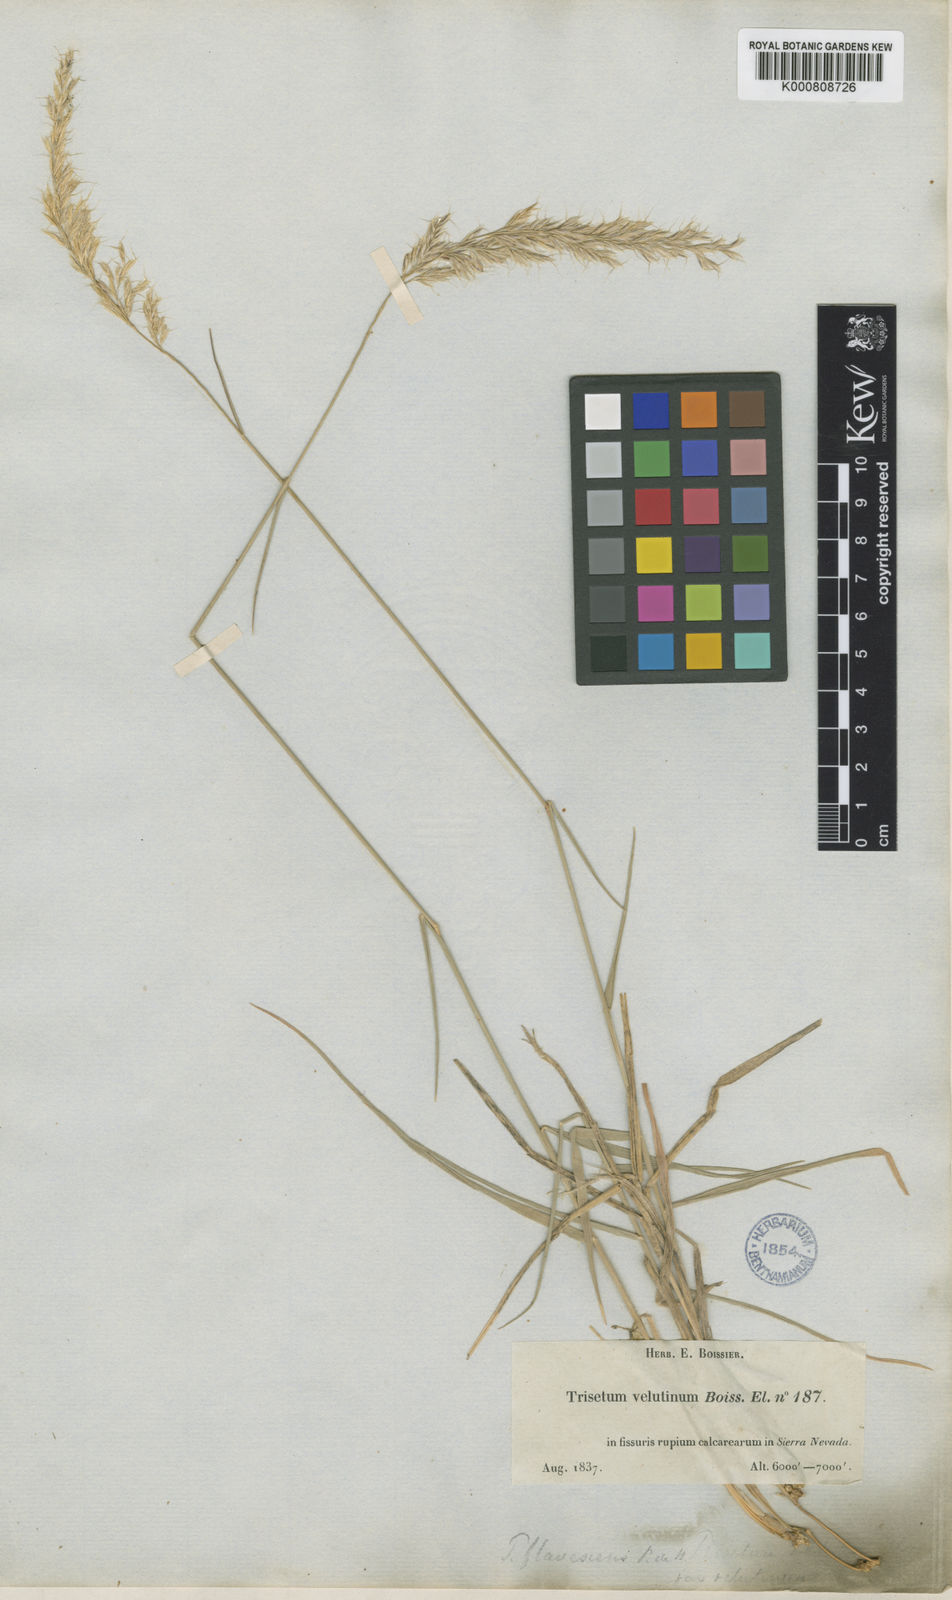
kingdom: Plantae
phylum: Tracheophyta
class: Liliopsida
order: Poales
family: Poaceae
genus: Trisetum
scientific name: Trisetum velutinum
